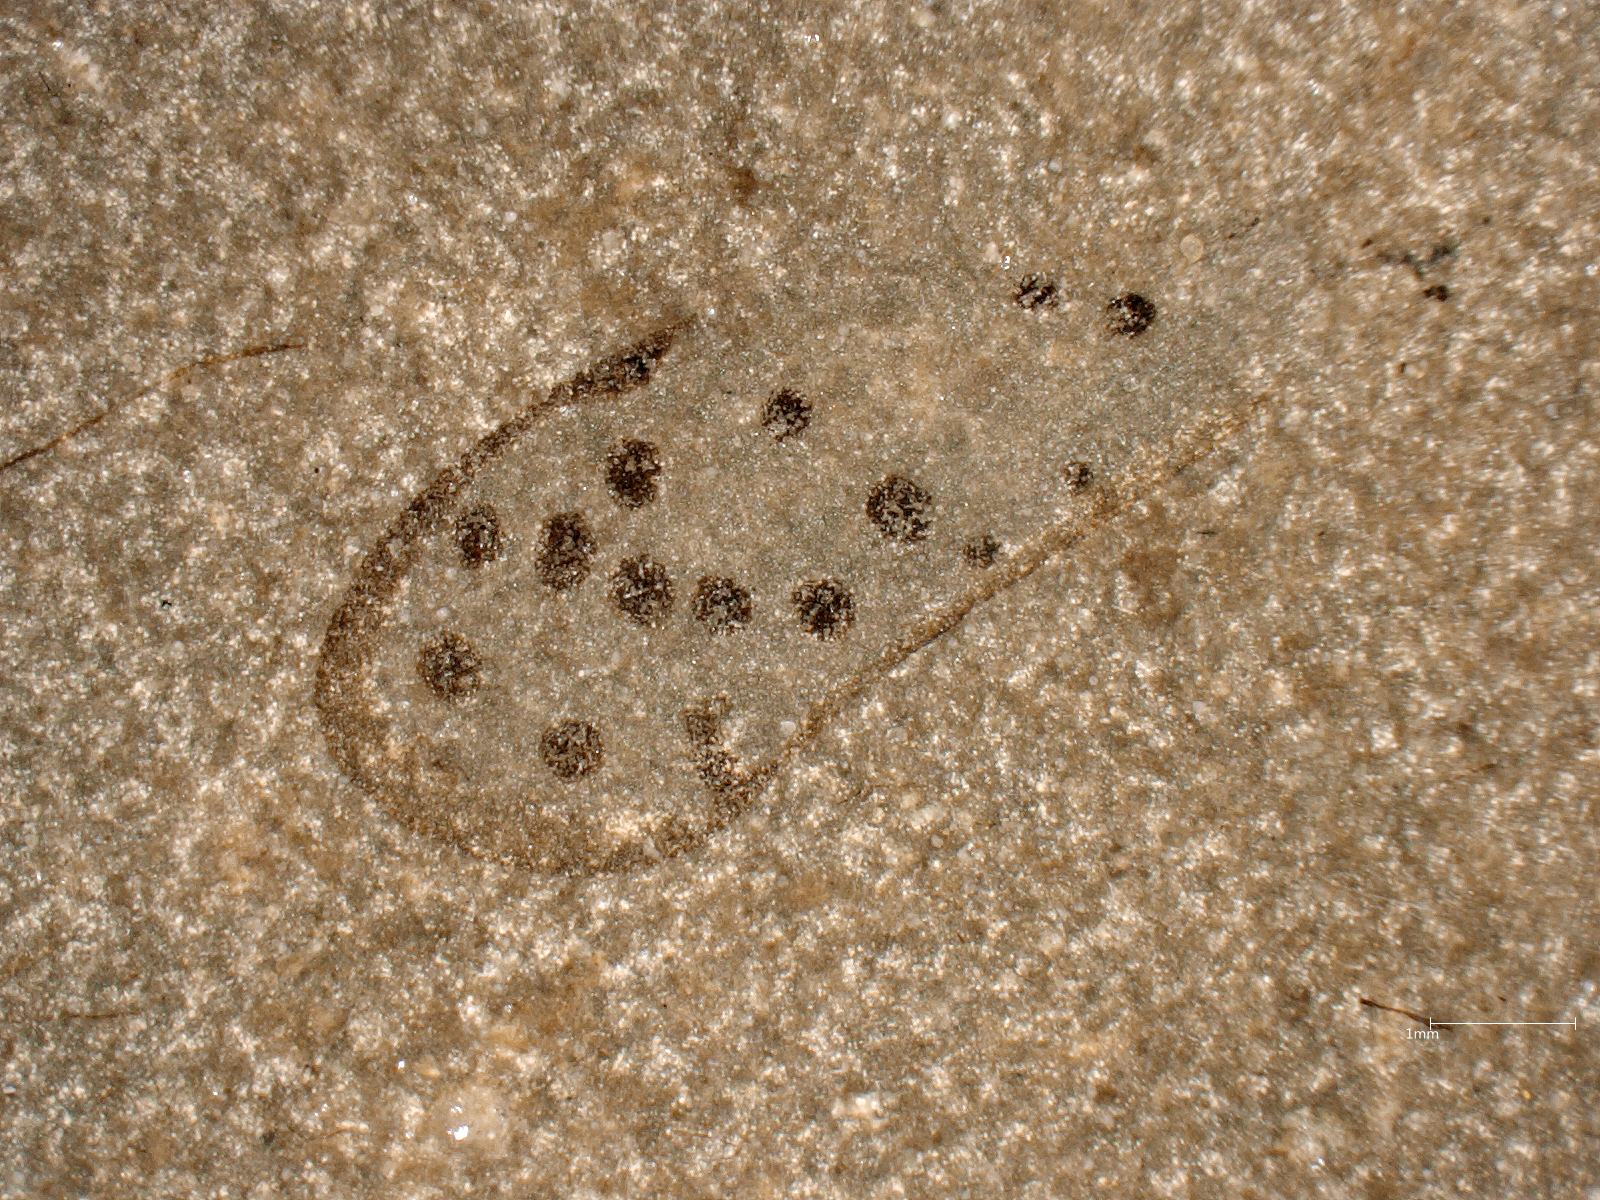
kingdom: Animalia
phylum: Arthropoda
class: Insecta
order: Hemiptera
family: Fulgoridiidae
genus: Margaroptilon
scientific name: Margaroptilon
